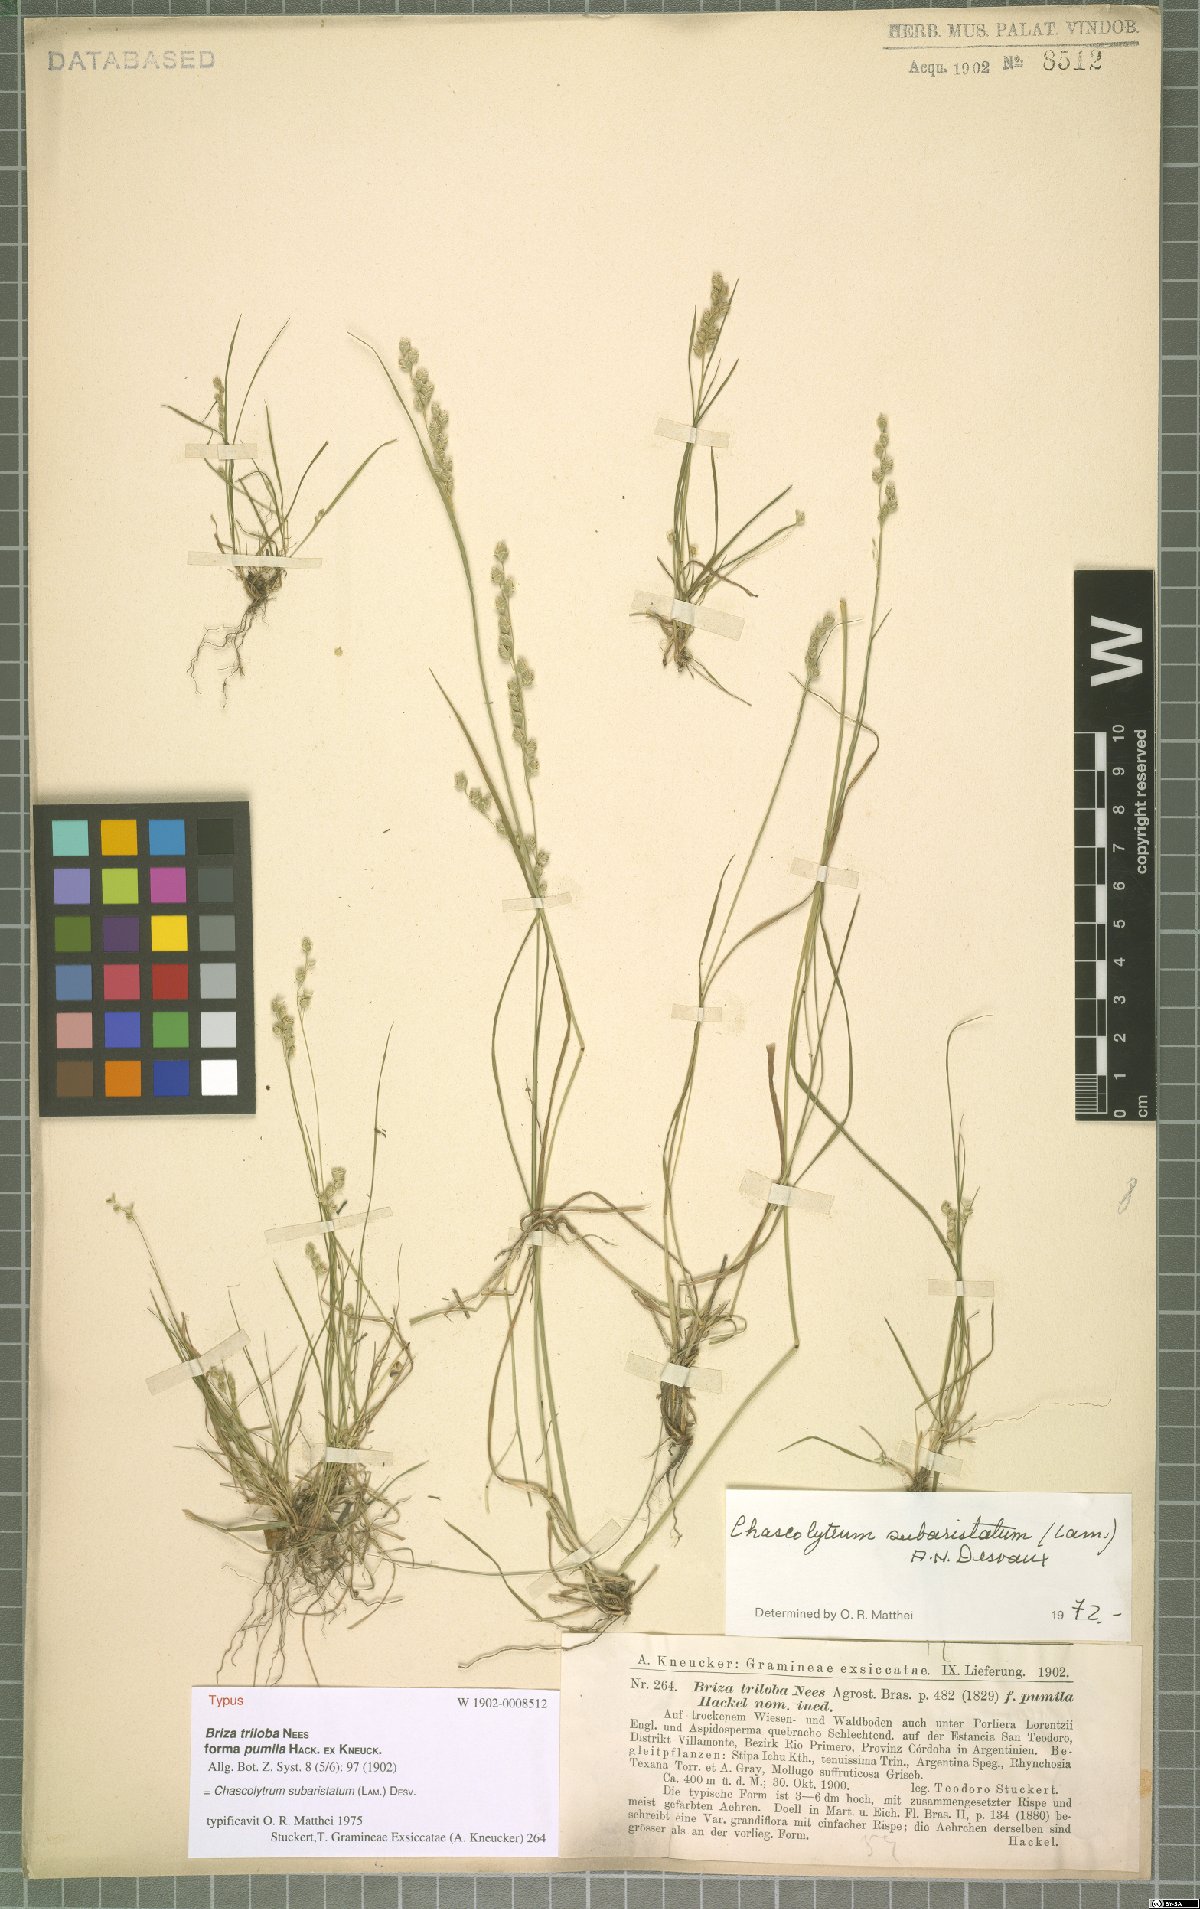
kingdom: Plantae
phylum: Tracheophyta
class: Liliopsida
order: Poales
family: Poaceae
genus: Chascolytrum
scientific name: Chascolytrum subaristatum
